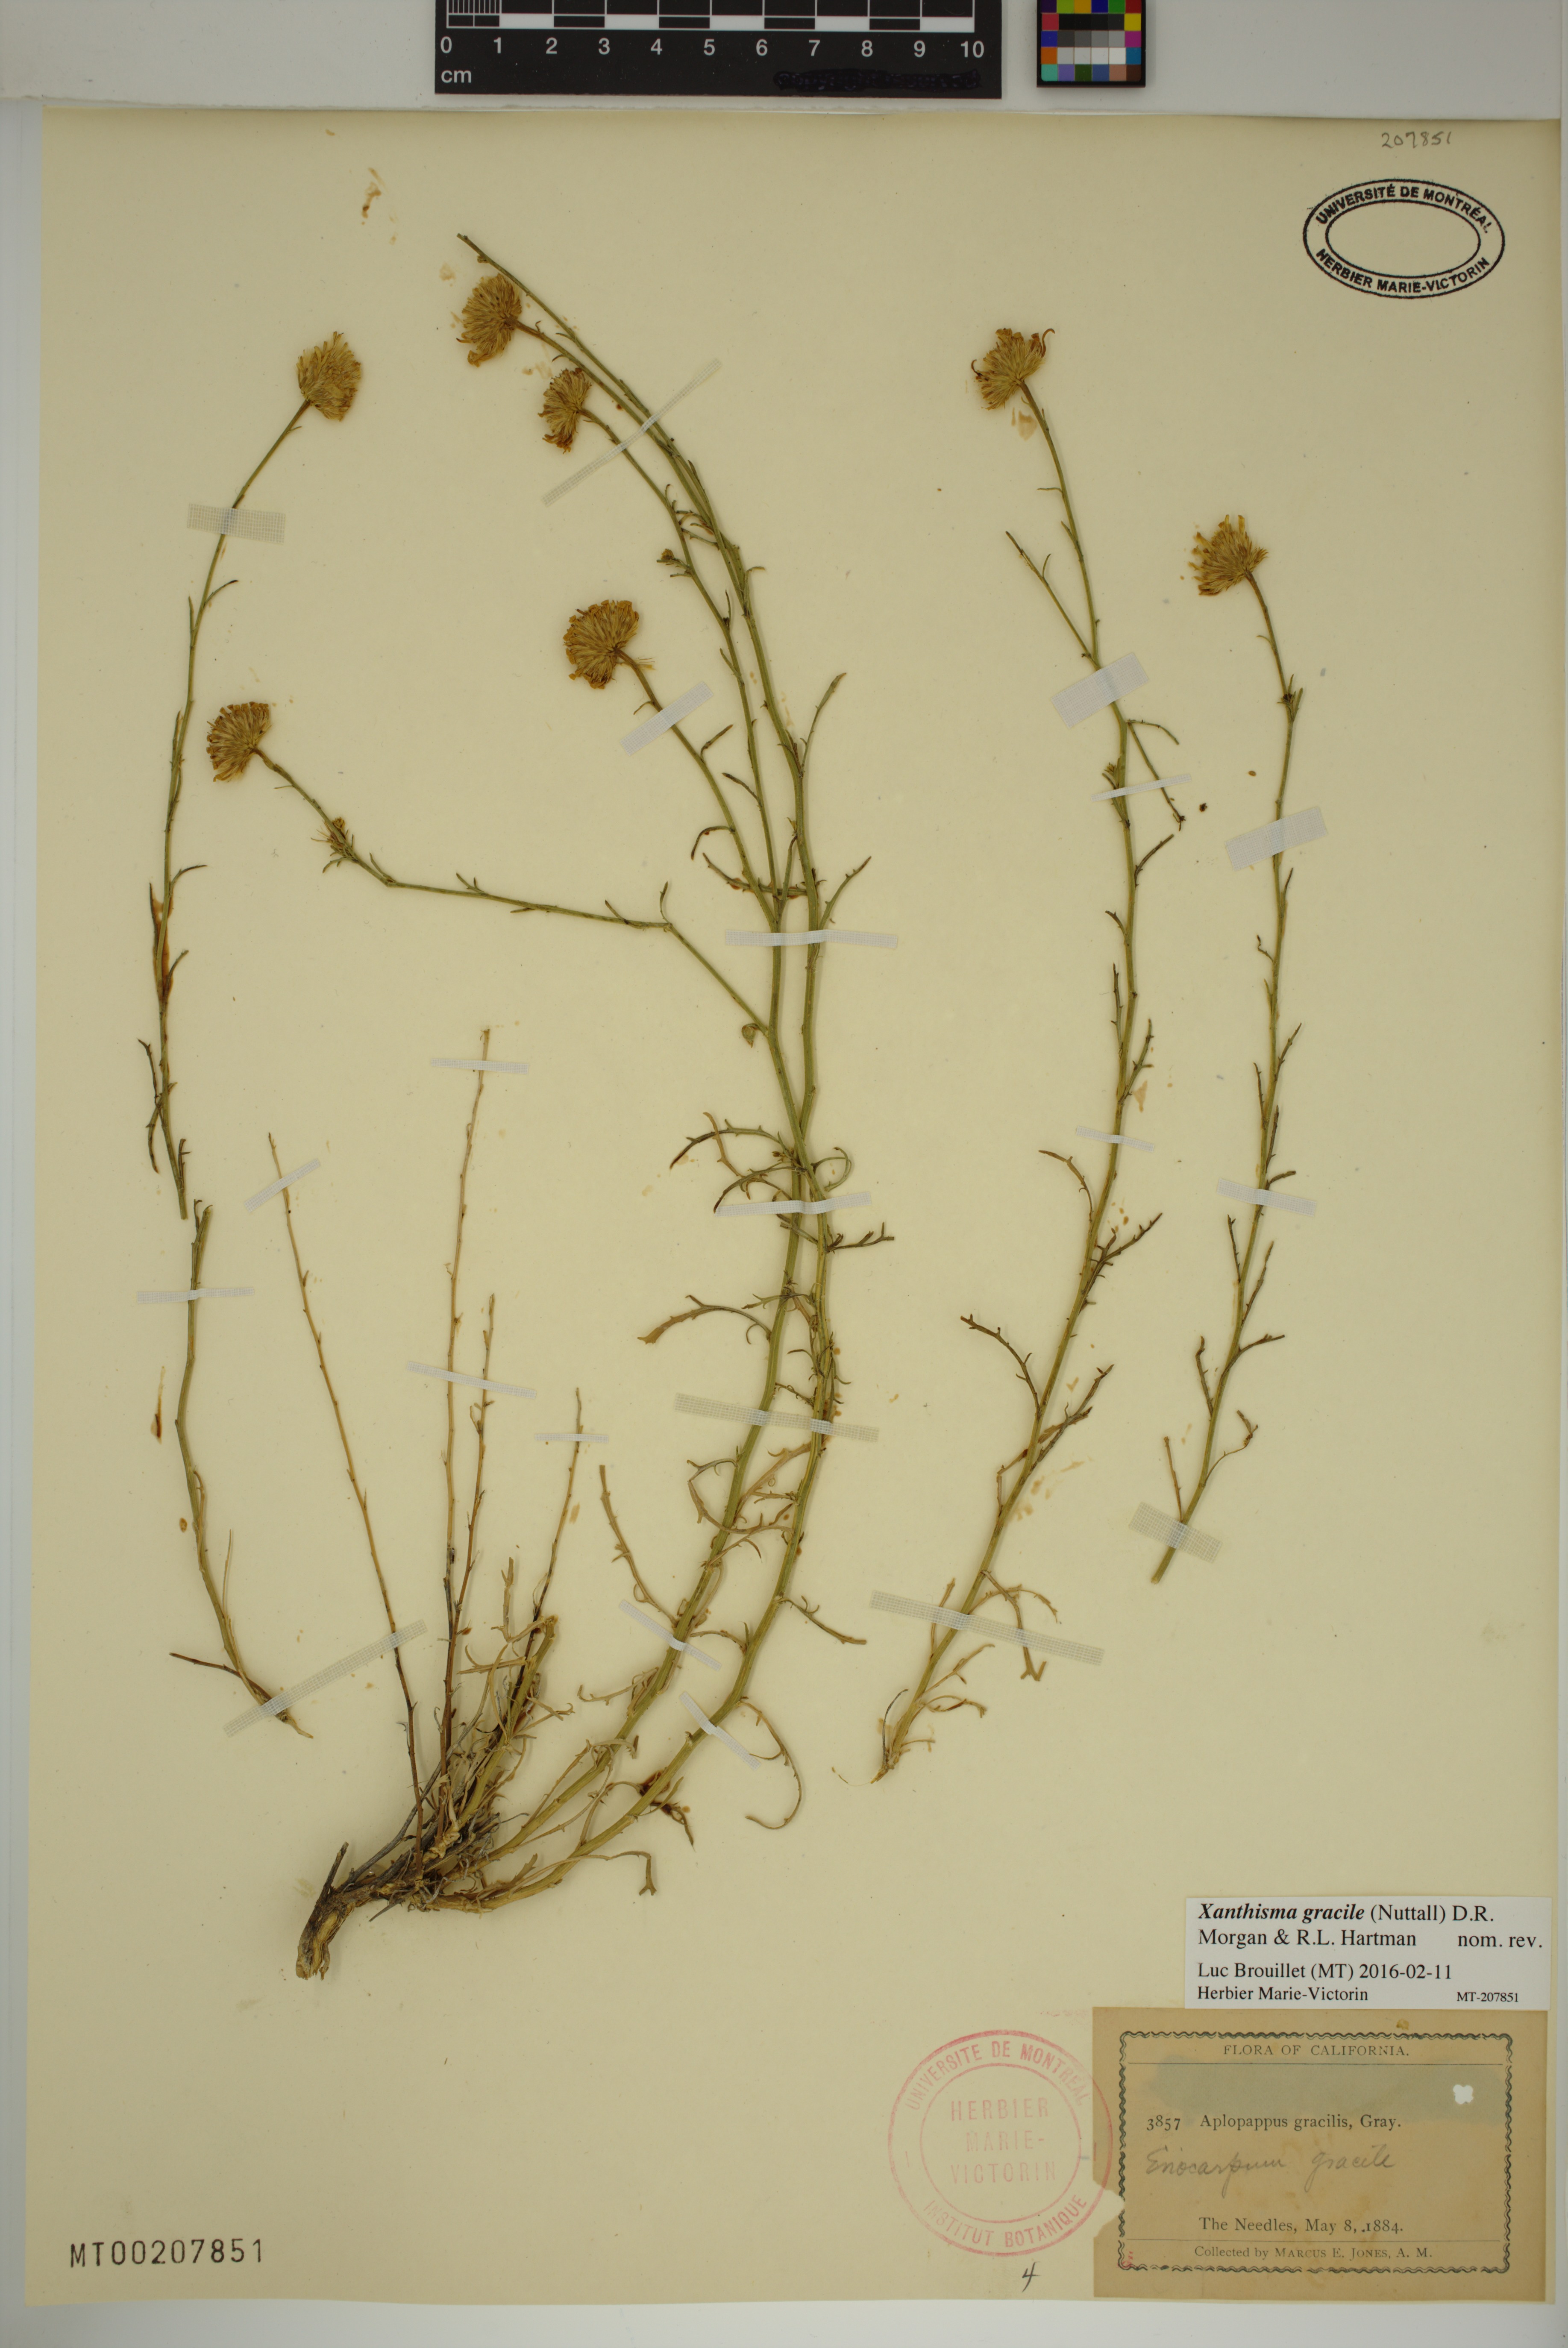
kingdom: Plantae
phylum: Tracheophyta
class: Magnoliopsida
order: Asterales
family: Asteraceae
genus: Xanthisma
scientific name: Xanthisma gracile
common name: Slender goldenweed
